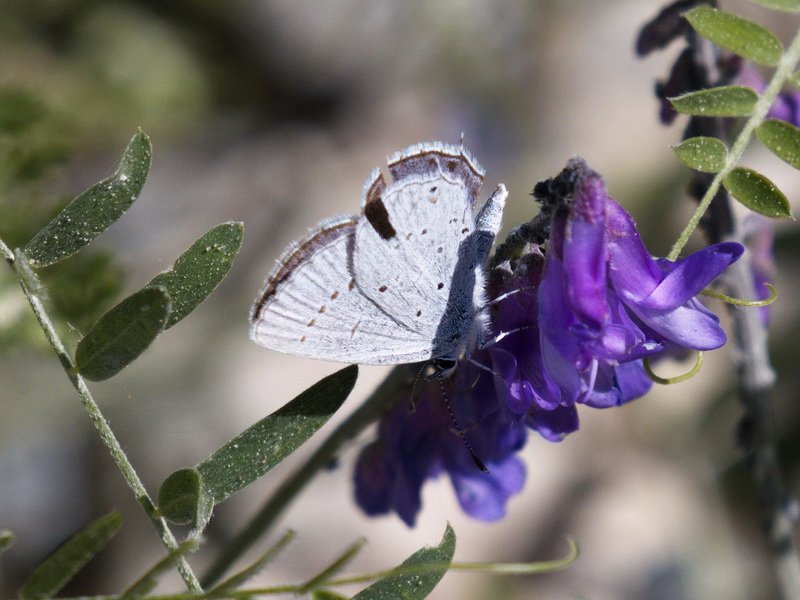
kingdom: Animalia
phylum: Arthropoda
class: Insecta
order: Lepidoptera
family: Lycaenidae
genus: Elkalyce
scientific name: Elkalyce amyntula
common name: Western Tailed-Blue
